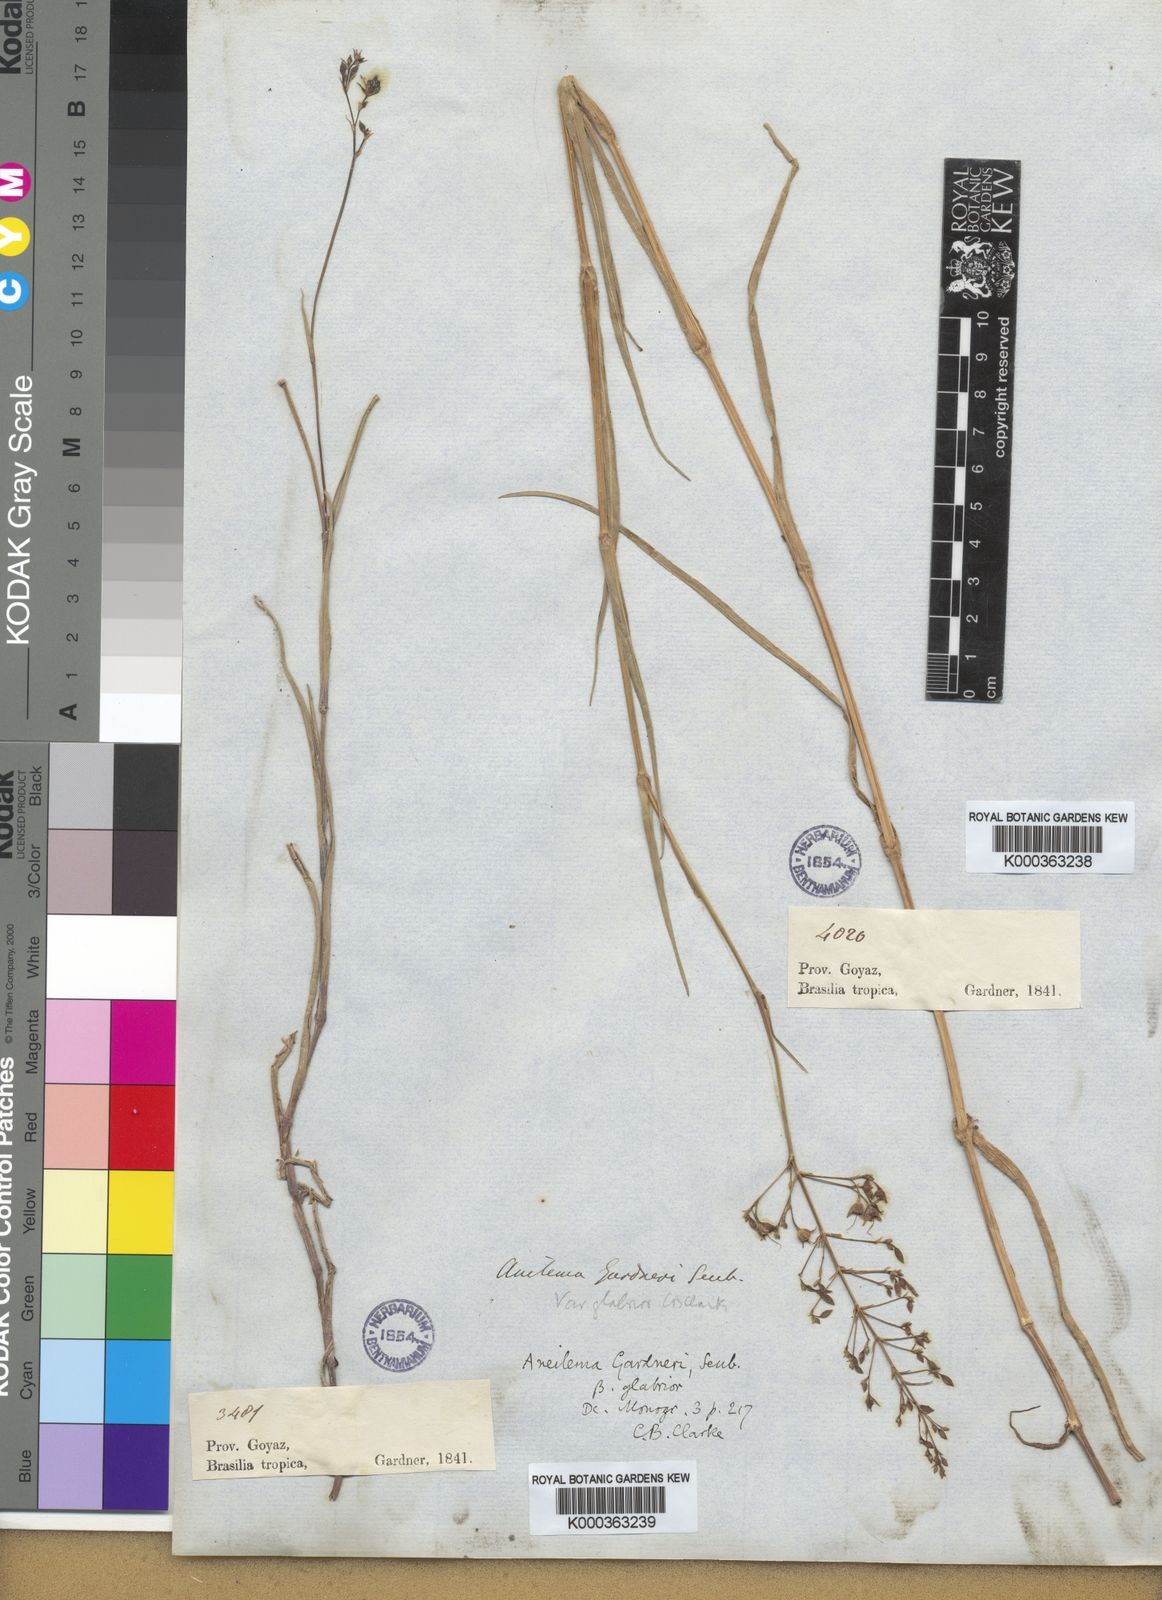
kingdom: Plantae
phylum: Tracheophyta
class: Liliopsida
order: Commelinales
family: Commelinaceae
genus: Murdannia
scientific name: Murdannia burchellii
